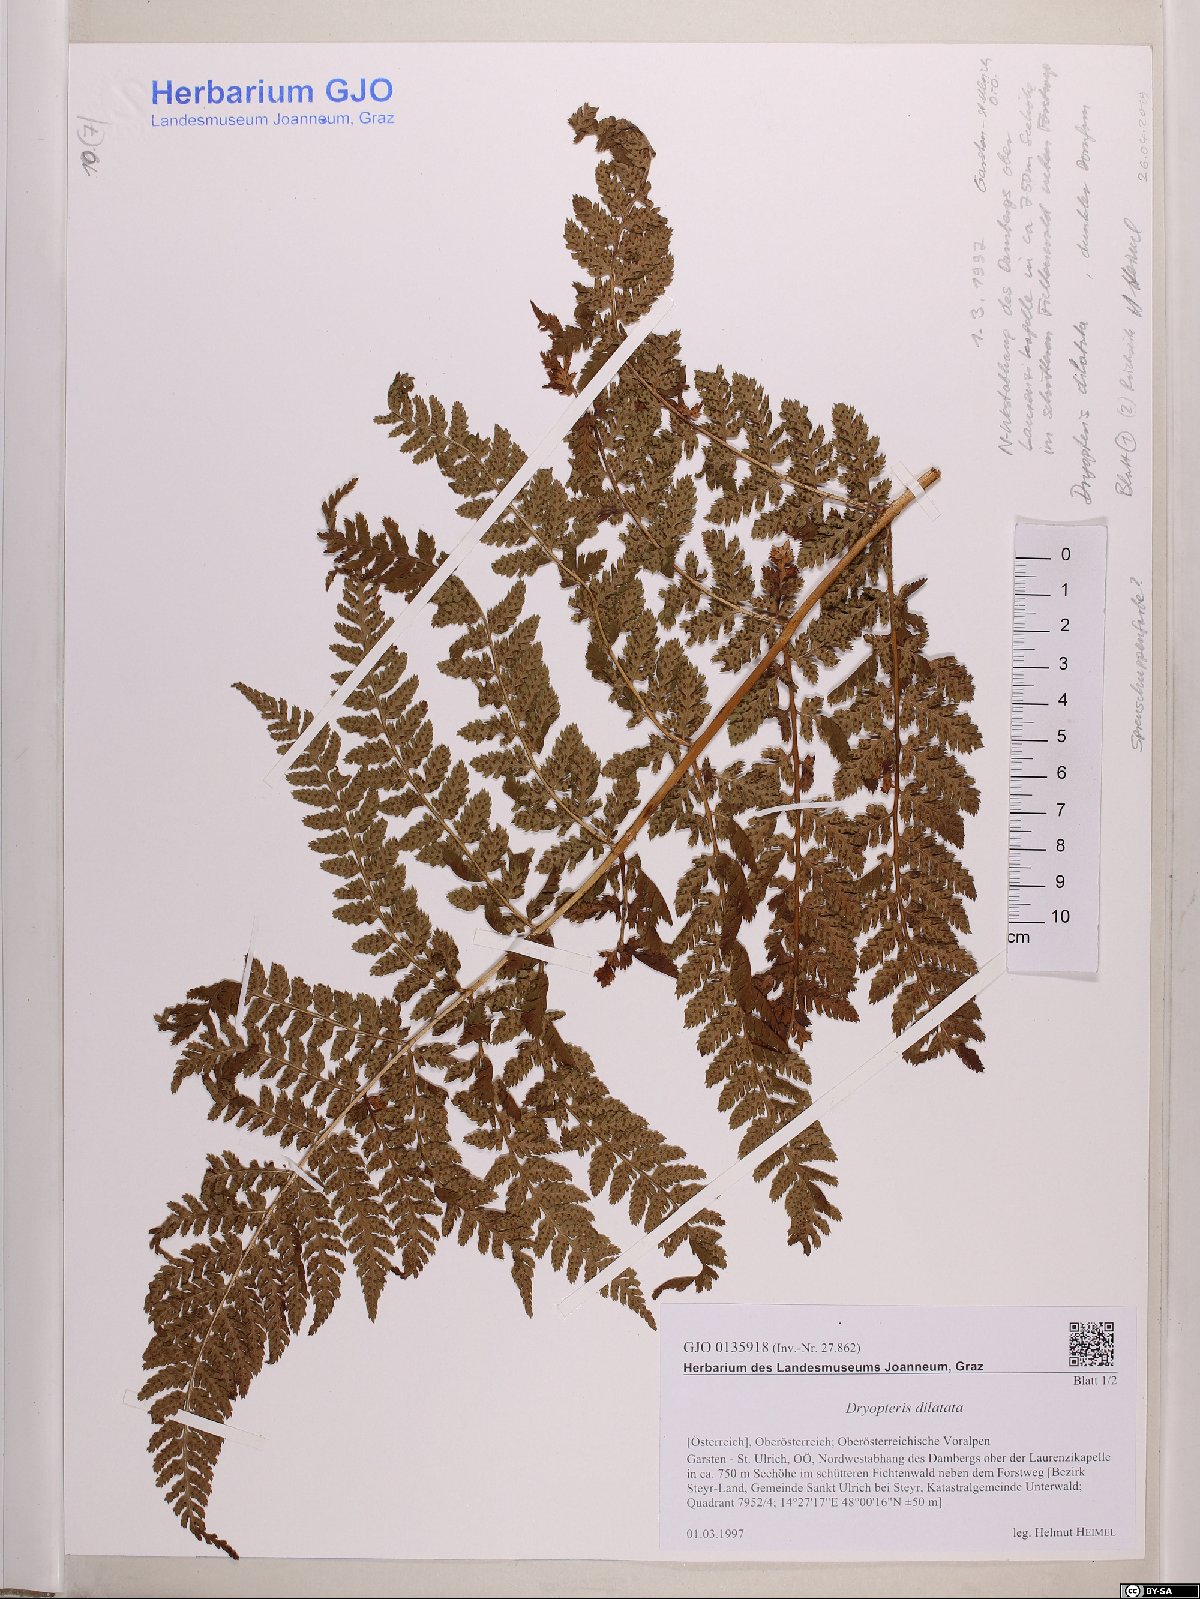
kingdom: Plantae
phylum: Tracheophyta
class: Polypodiopsida
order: Polypodiales
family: Dryopteridaceae
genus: Dryopteris
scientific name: Dryopteris dilatata
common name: Broad buckler-fern
